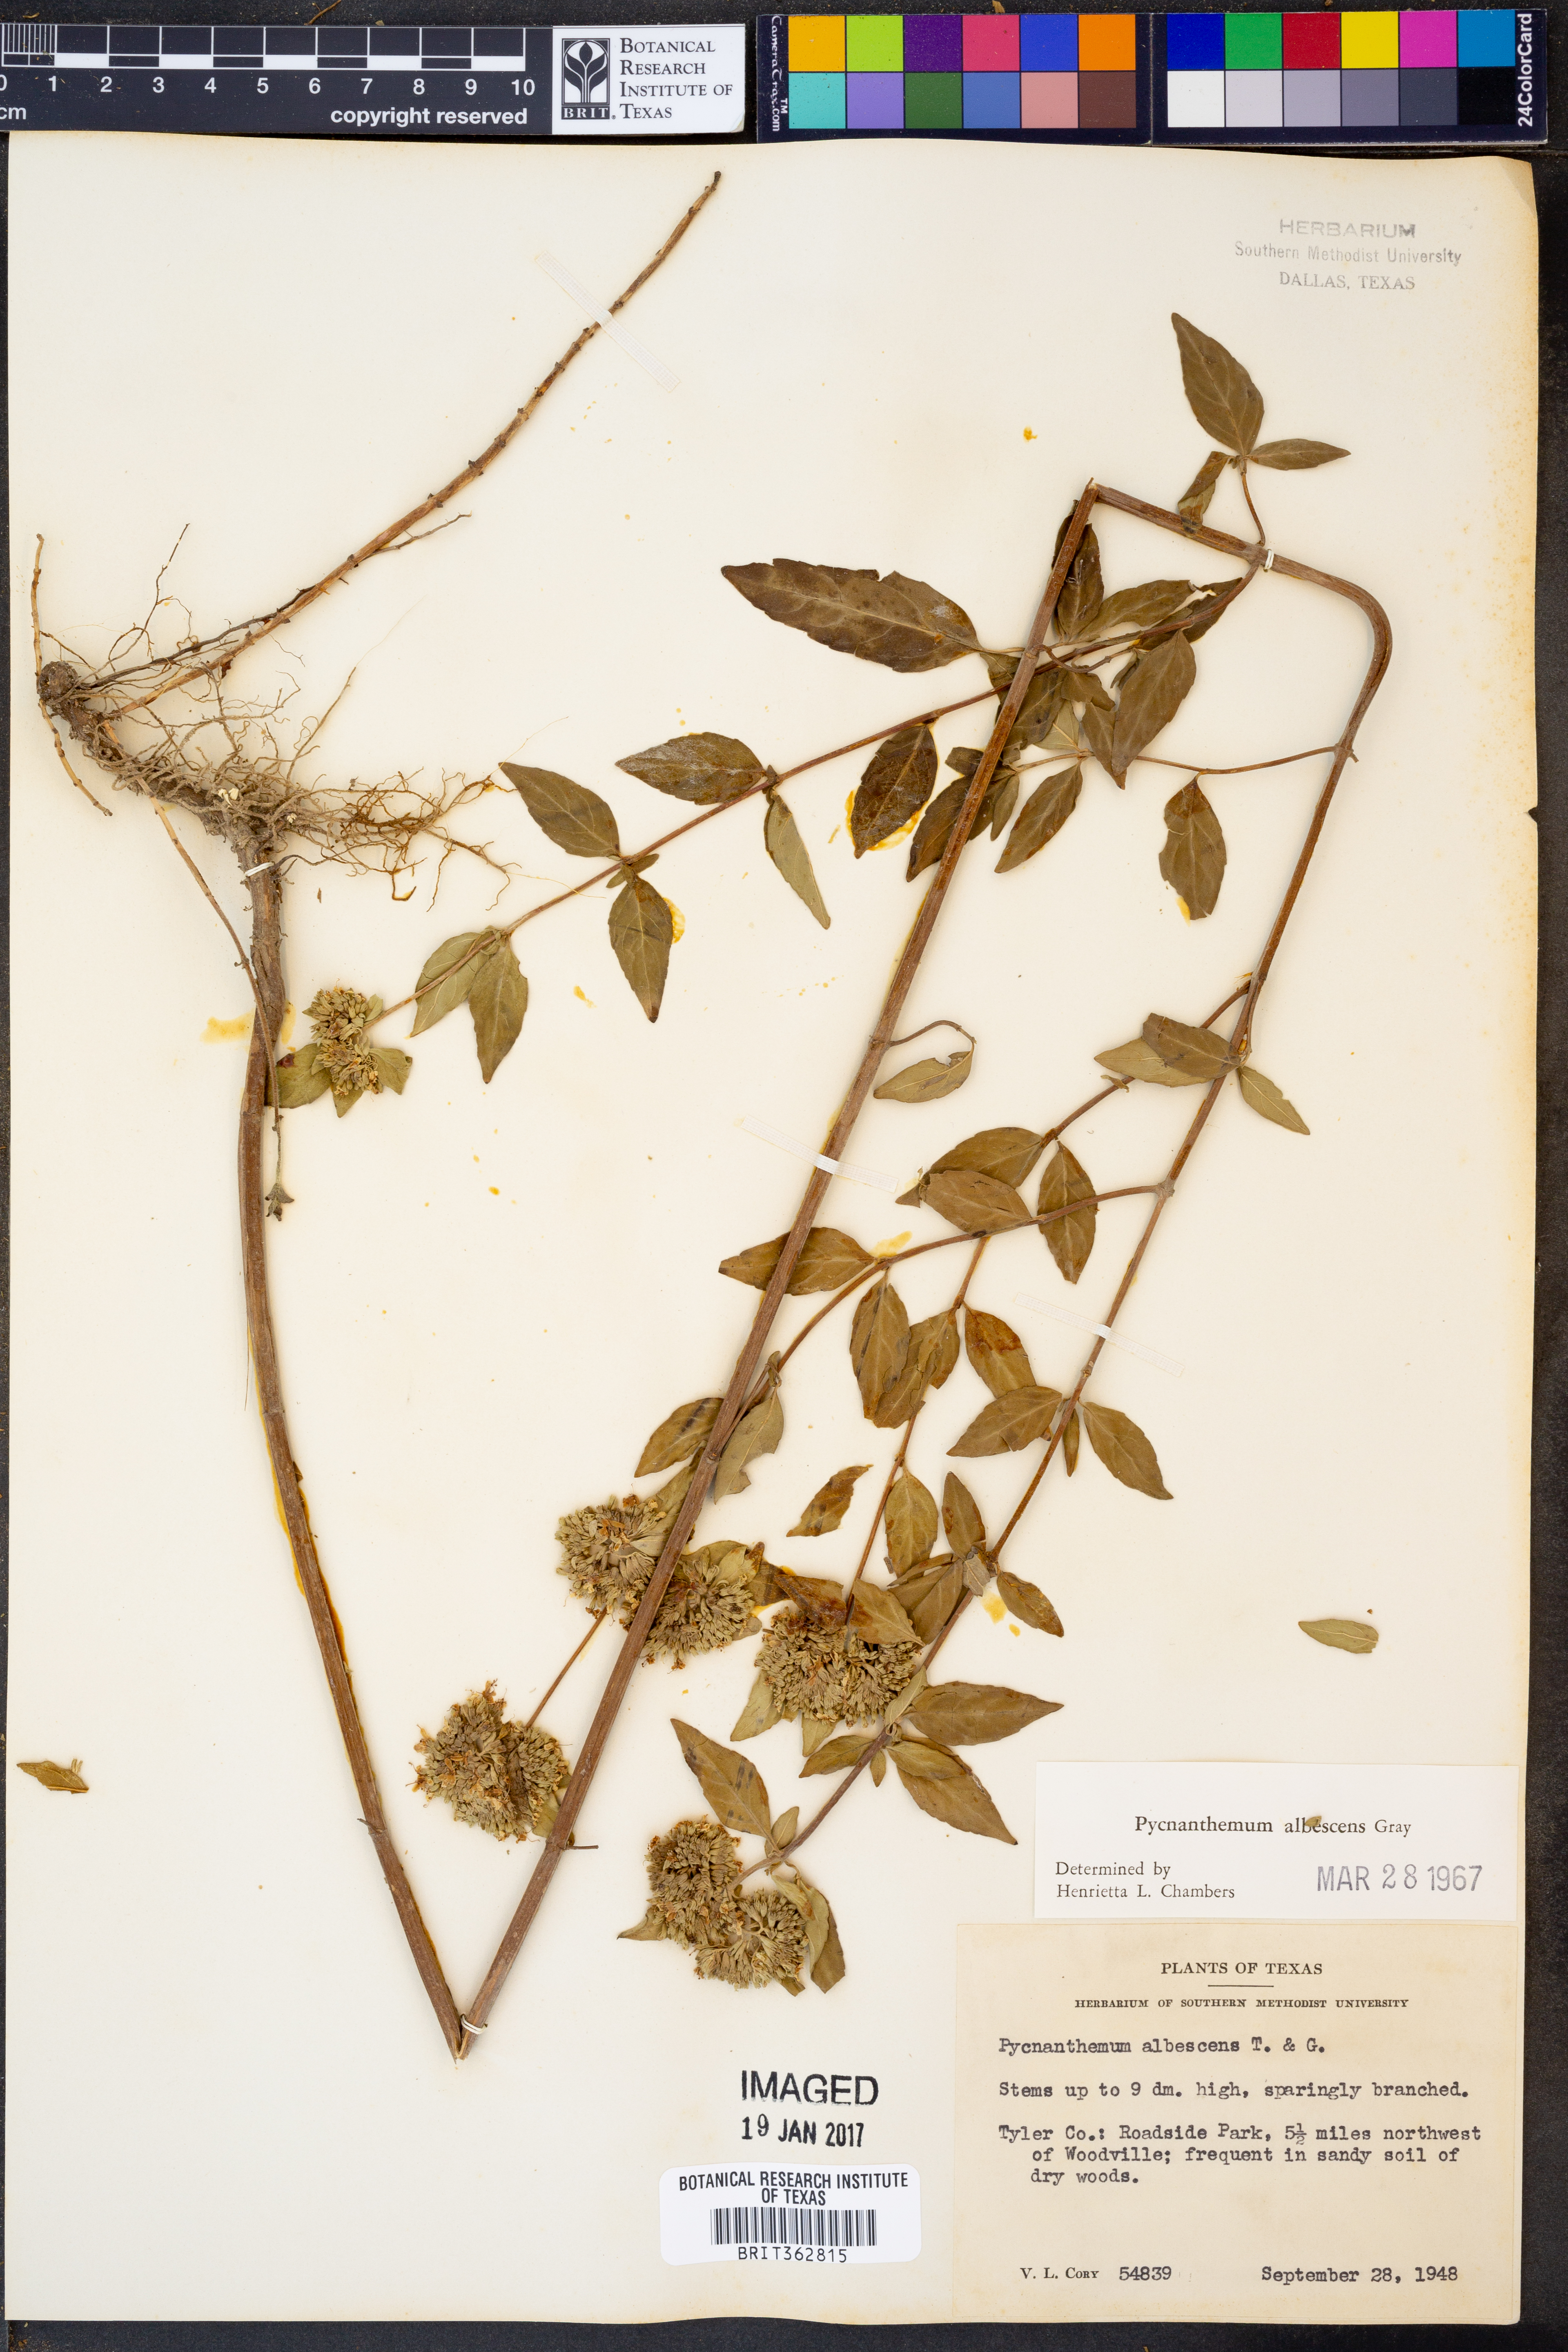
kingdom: Plantae
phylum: Tracheophyta
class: Magnoliopsida
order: Lamiales
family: Lamiaceae
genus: Pycnanthemum
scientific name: Pycnanthemum albescens
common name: White-leaf mountain-mint
